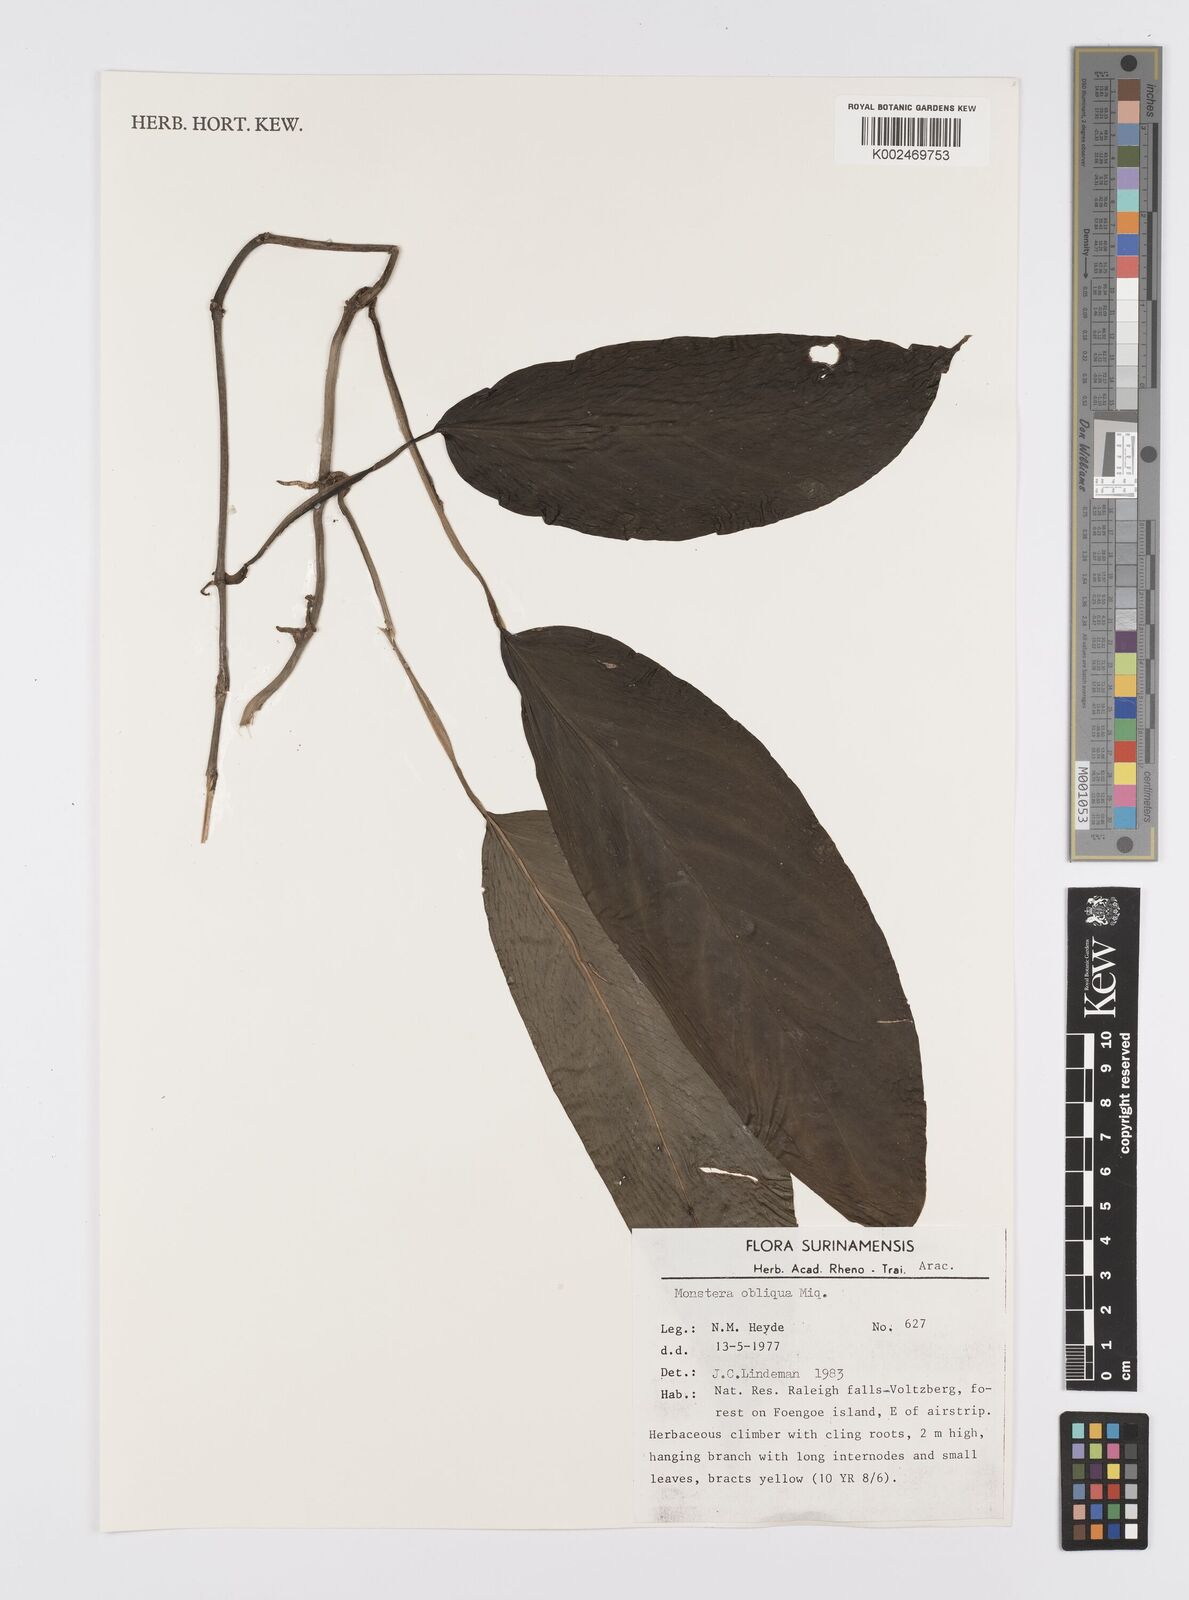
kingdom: Plantae
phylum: Tracheophyta
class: Liliopsida
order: Alismatales
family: Araceae
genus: Monstera
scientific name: Monstera obliqua
